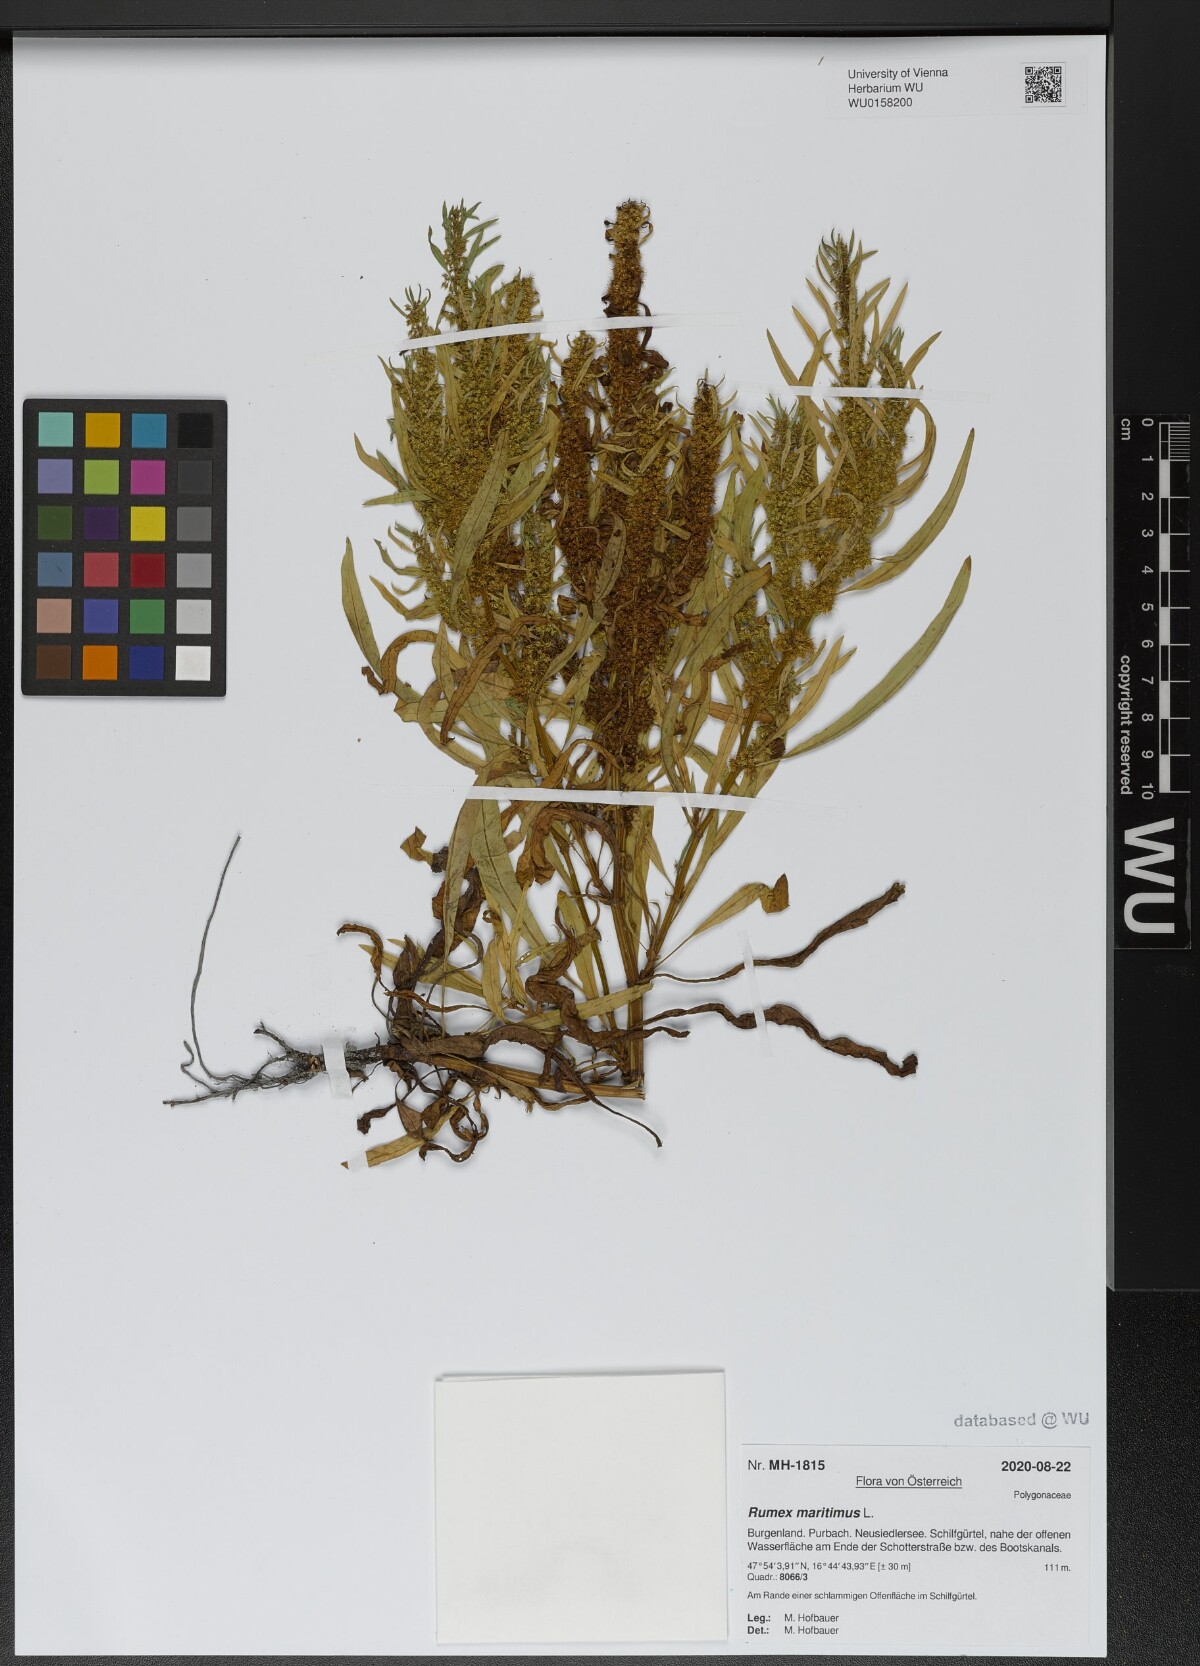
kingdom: Plantae
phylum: Tracheophyta
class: Magnoliopsida
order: Caryophyllales
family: Polygonaceae
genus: Rumex
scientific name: Rumex maritimus
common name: Golden dock
